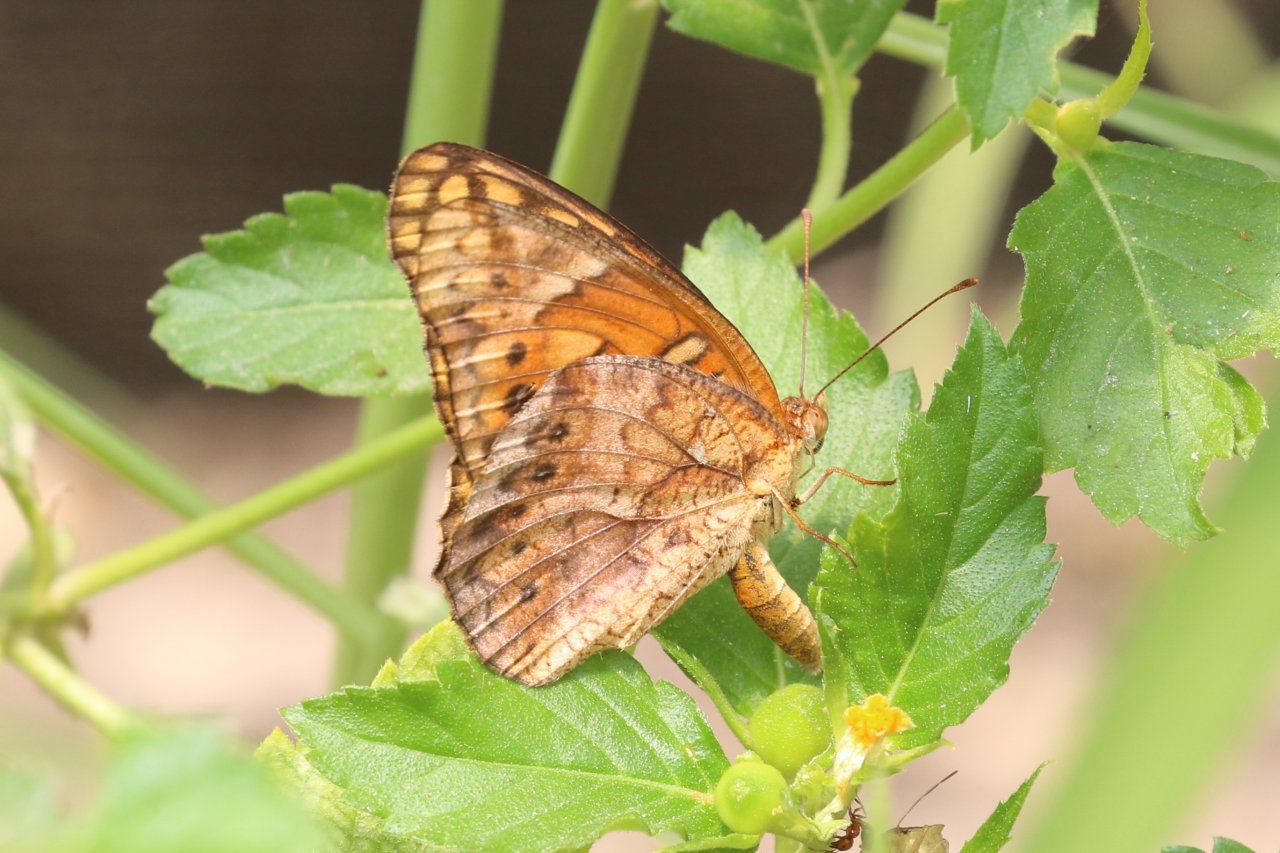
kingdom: Animalia
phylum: Arthropoda
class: Insecta
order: Lepidoptera
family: Nymphalidae
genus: Euptoieta
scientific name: Euptoieta hegesia
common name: Mexican Fritillary
